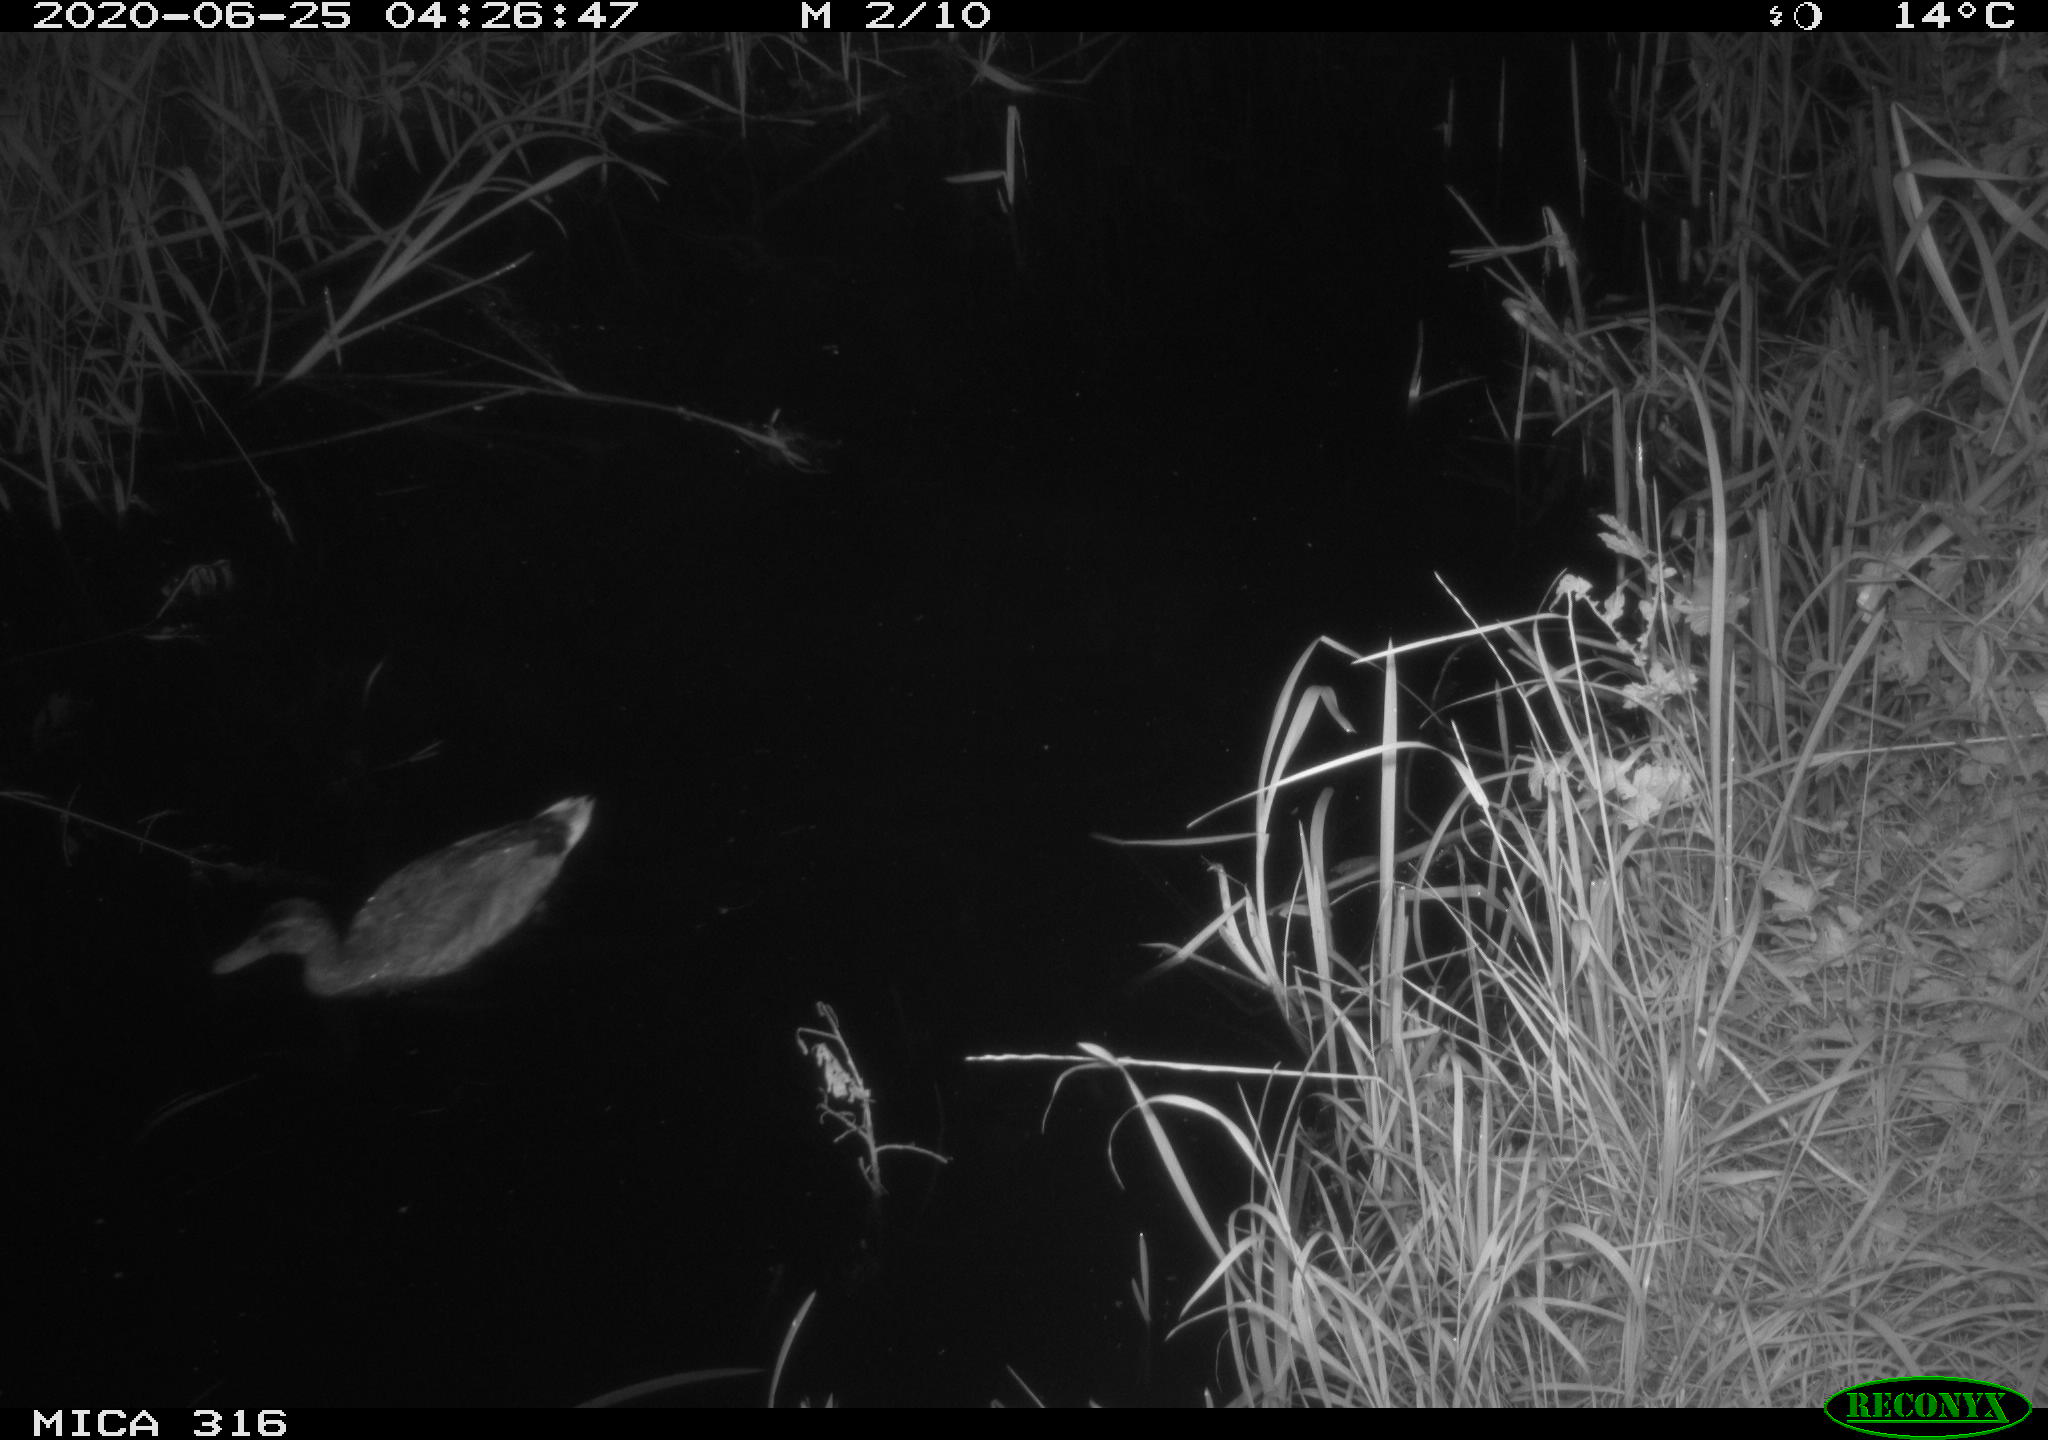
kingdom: Animalia
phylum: Chordata
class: Aves
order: Anseriformes
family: Anatidae
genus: Anas
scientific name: Anas platyrhynchos
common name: Mallard
